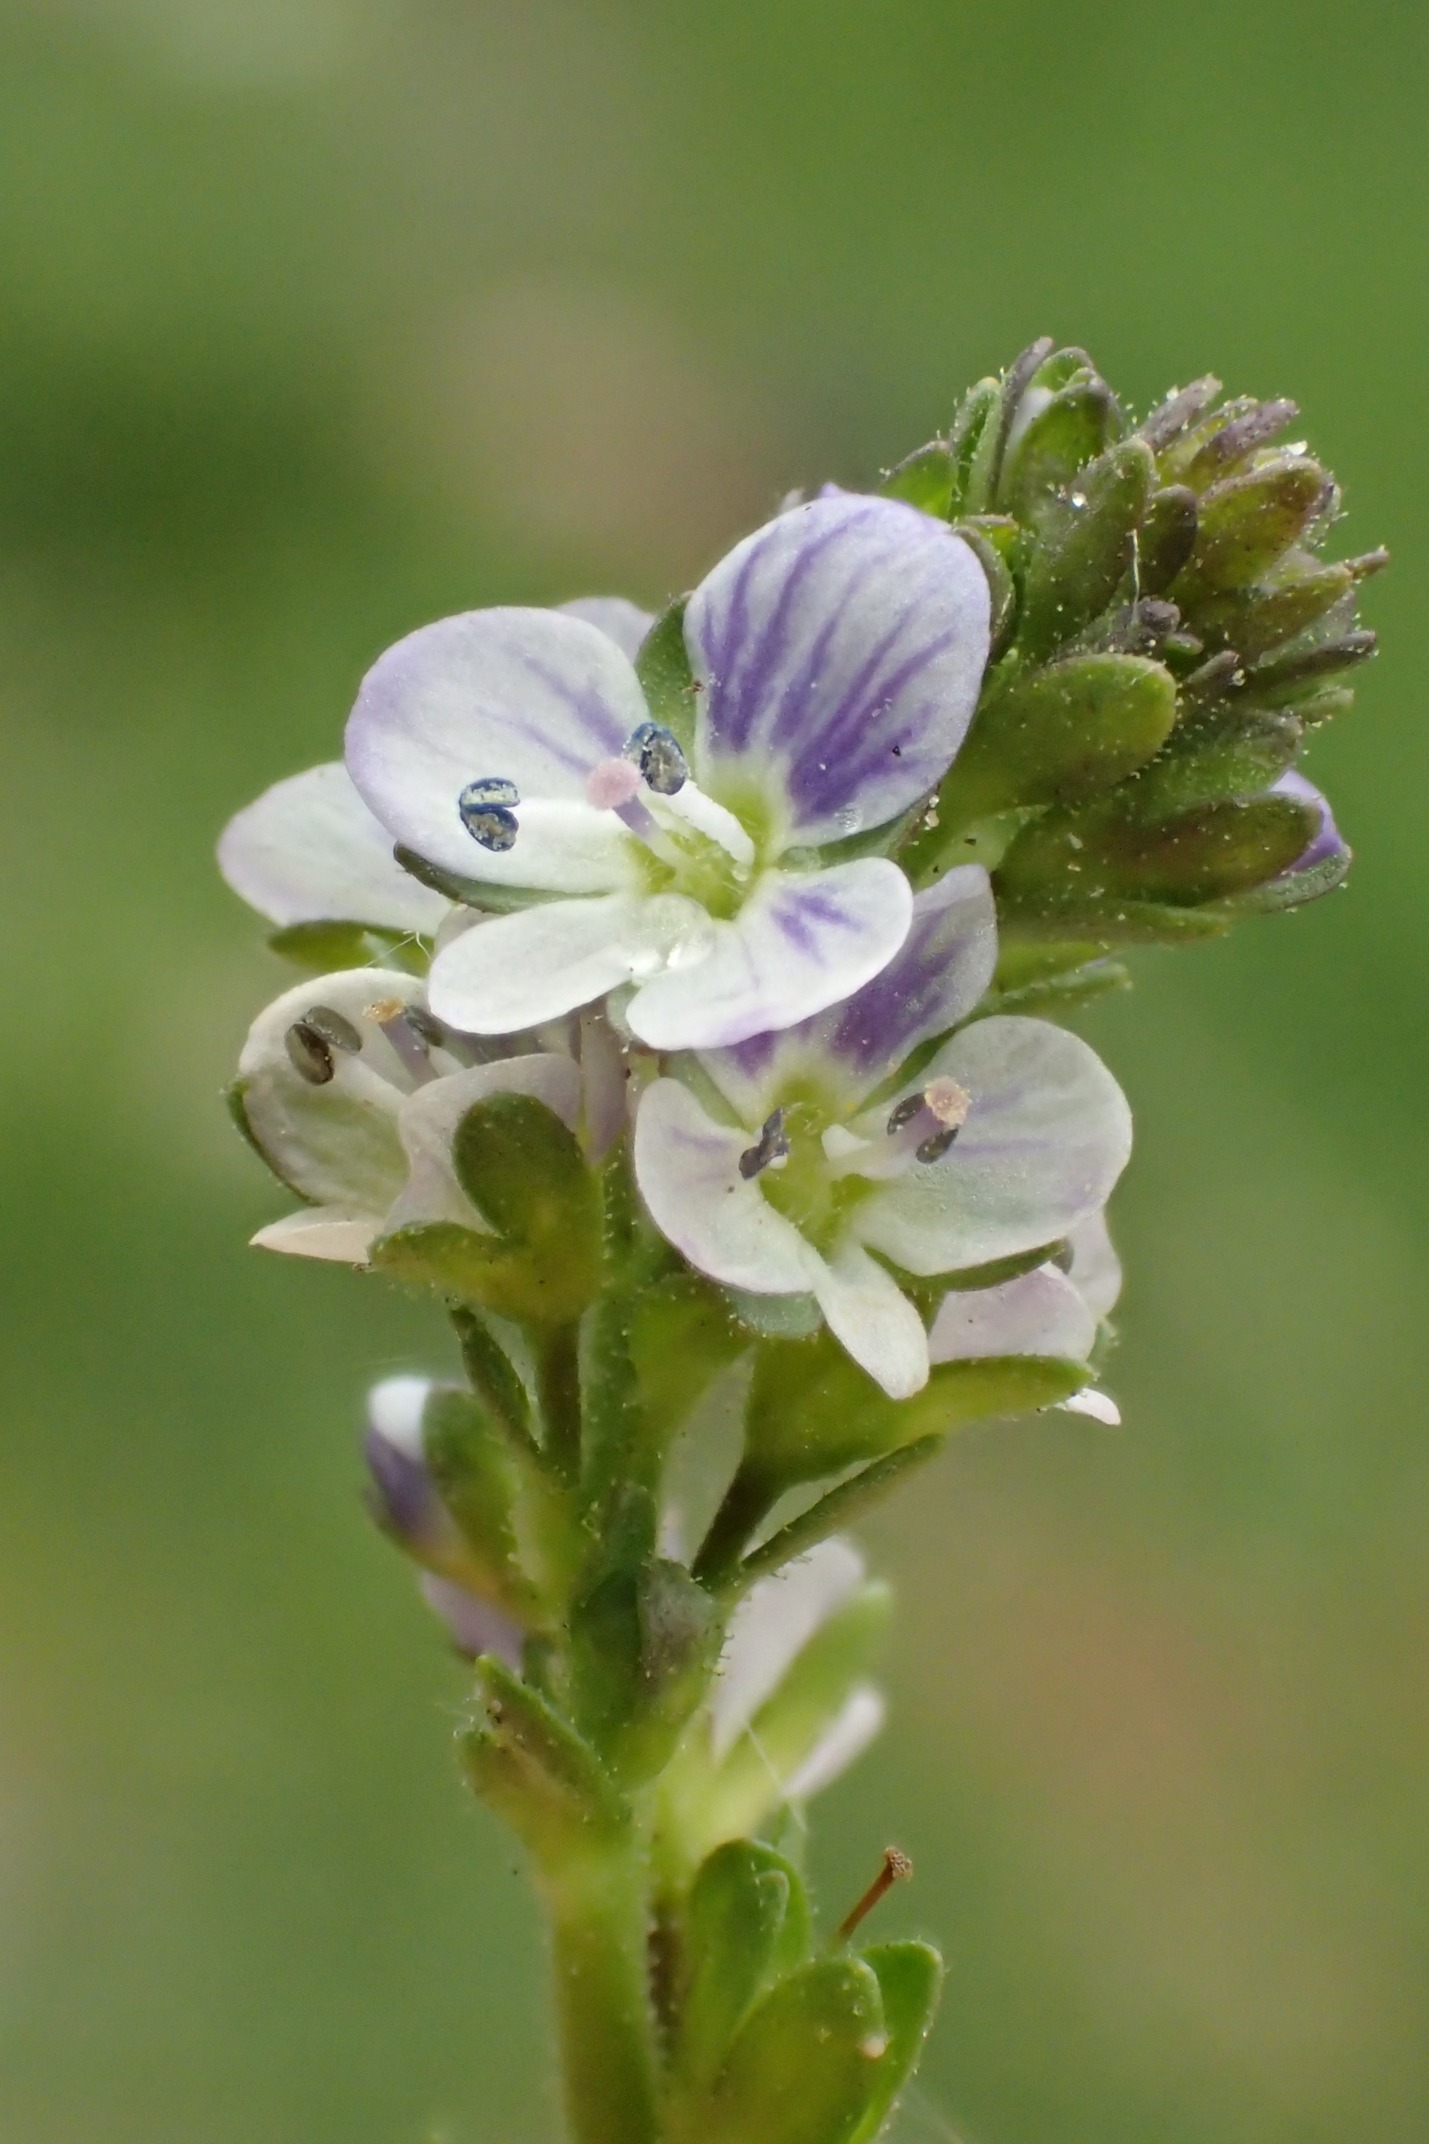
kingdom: Plantae
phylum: Tracheophyta
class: Magnoliopsida
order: Lamiales
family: Plantaginaceae
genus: Veronica
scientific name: Veronica serpyllifolia
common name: Glat ærenpris
